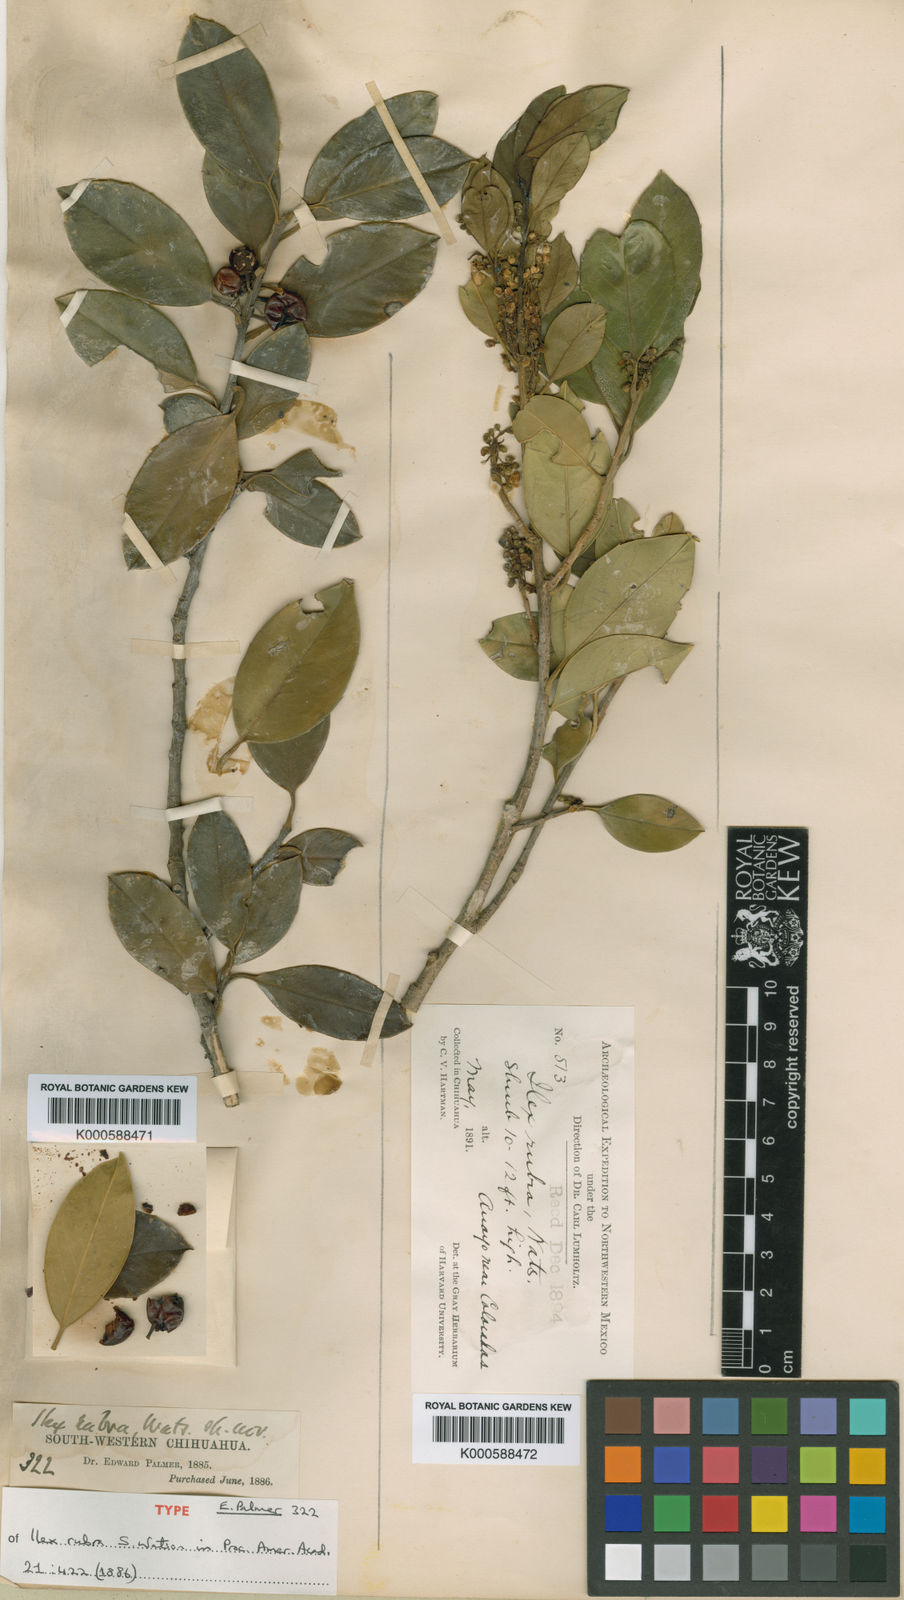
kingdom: Plantae
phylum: Tracheophyta
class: Magnoliopsida
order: Aquifoliales
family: Aquifoliaceae
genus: Ilex
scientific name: Ilex rubra
